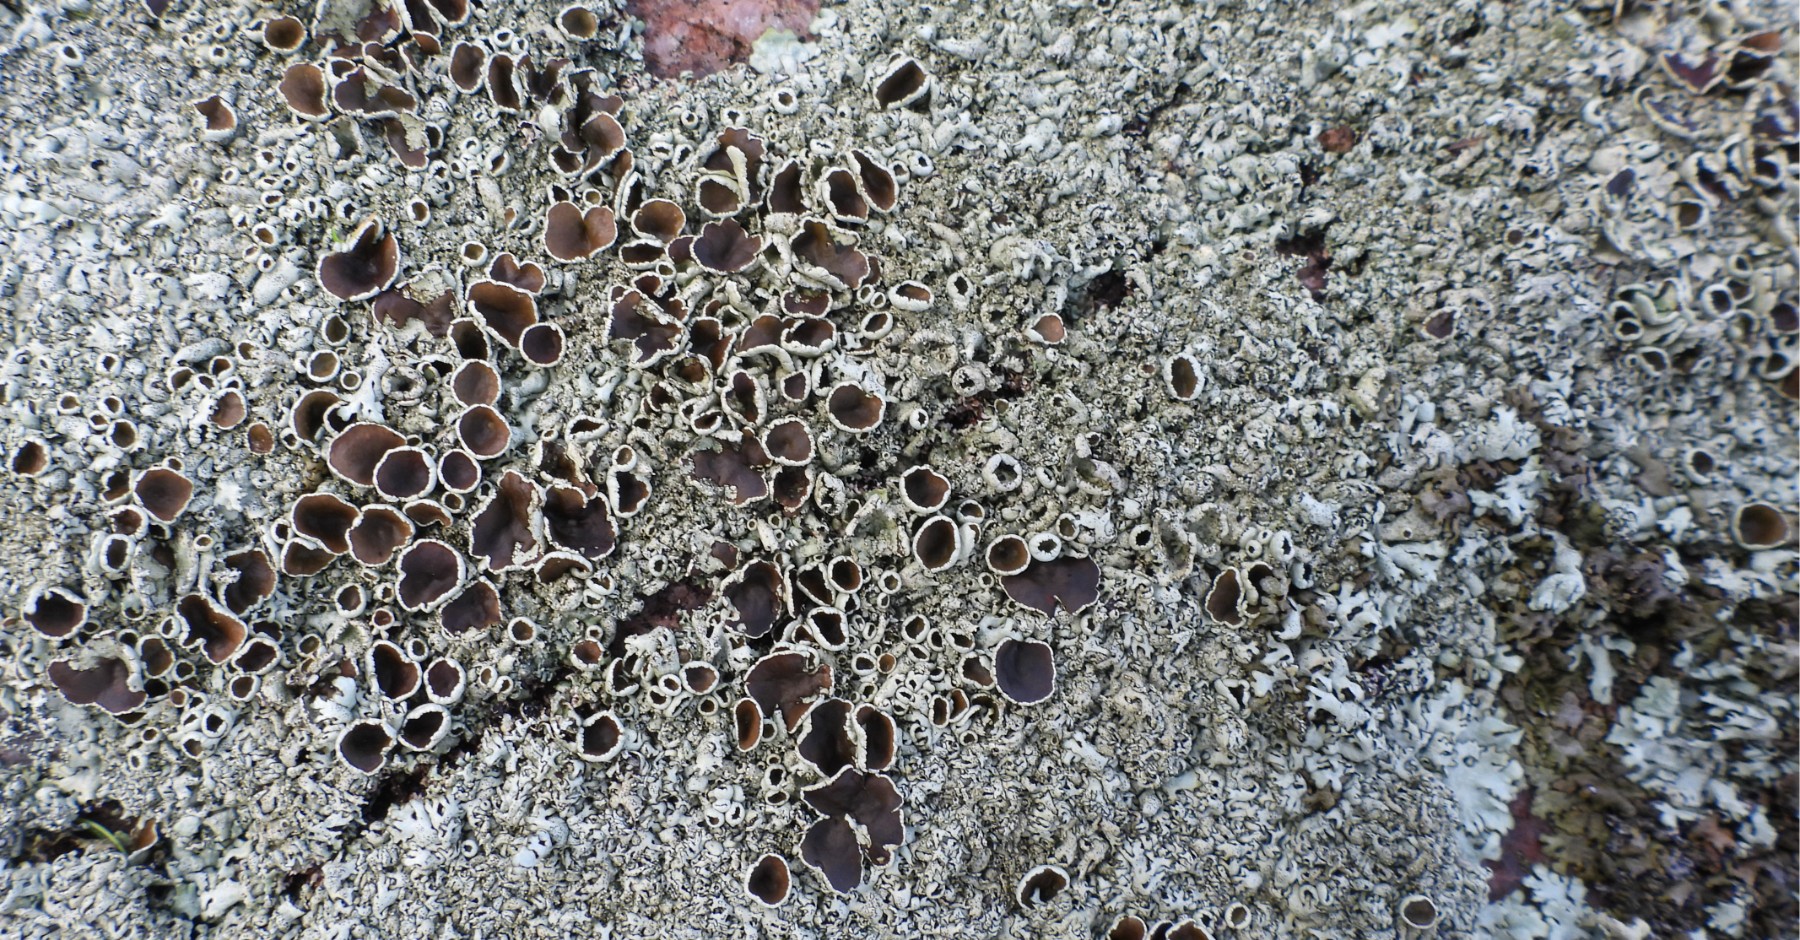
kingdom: Fungi
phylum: Ascomycota
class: Lecanoromycetes
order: Lecanorales
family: Parmeliaceae
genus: Xanthoparmelia
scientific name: Xanthoparmelia conspersa
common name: messing-skållav
